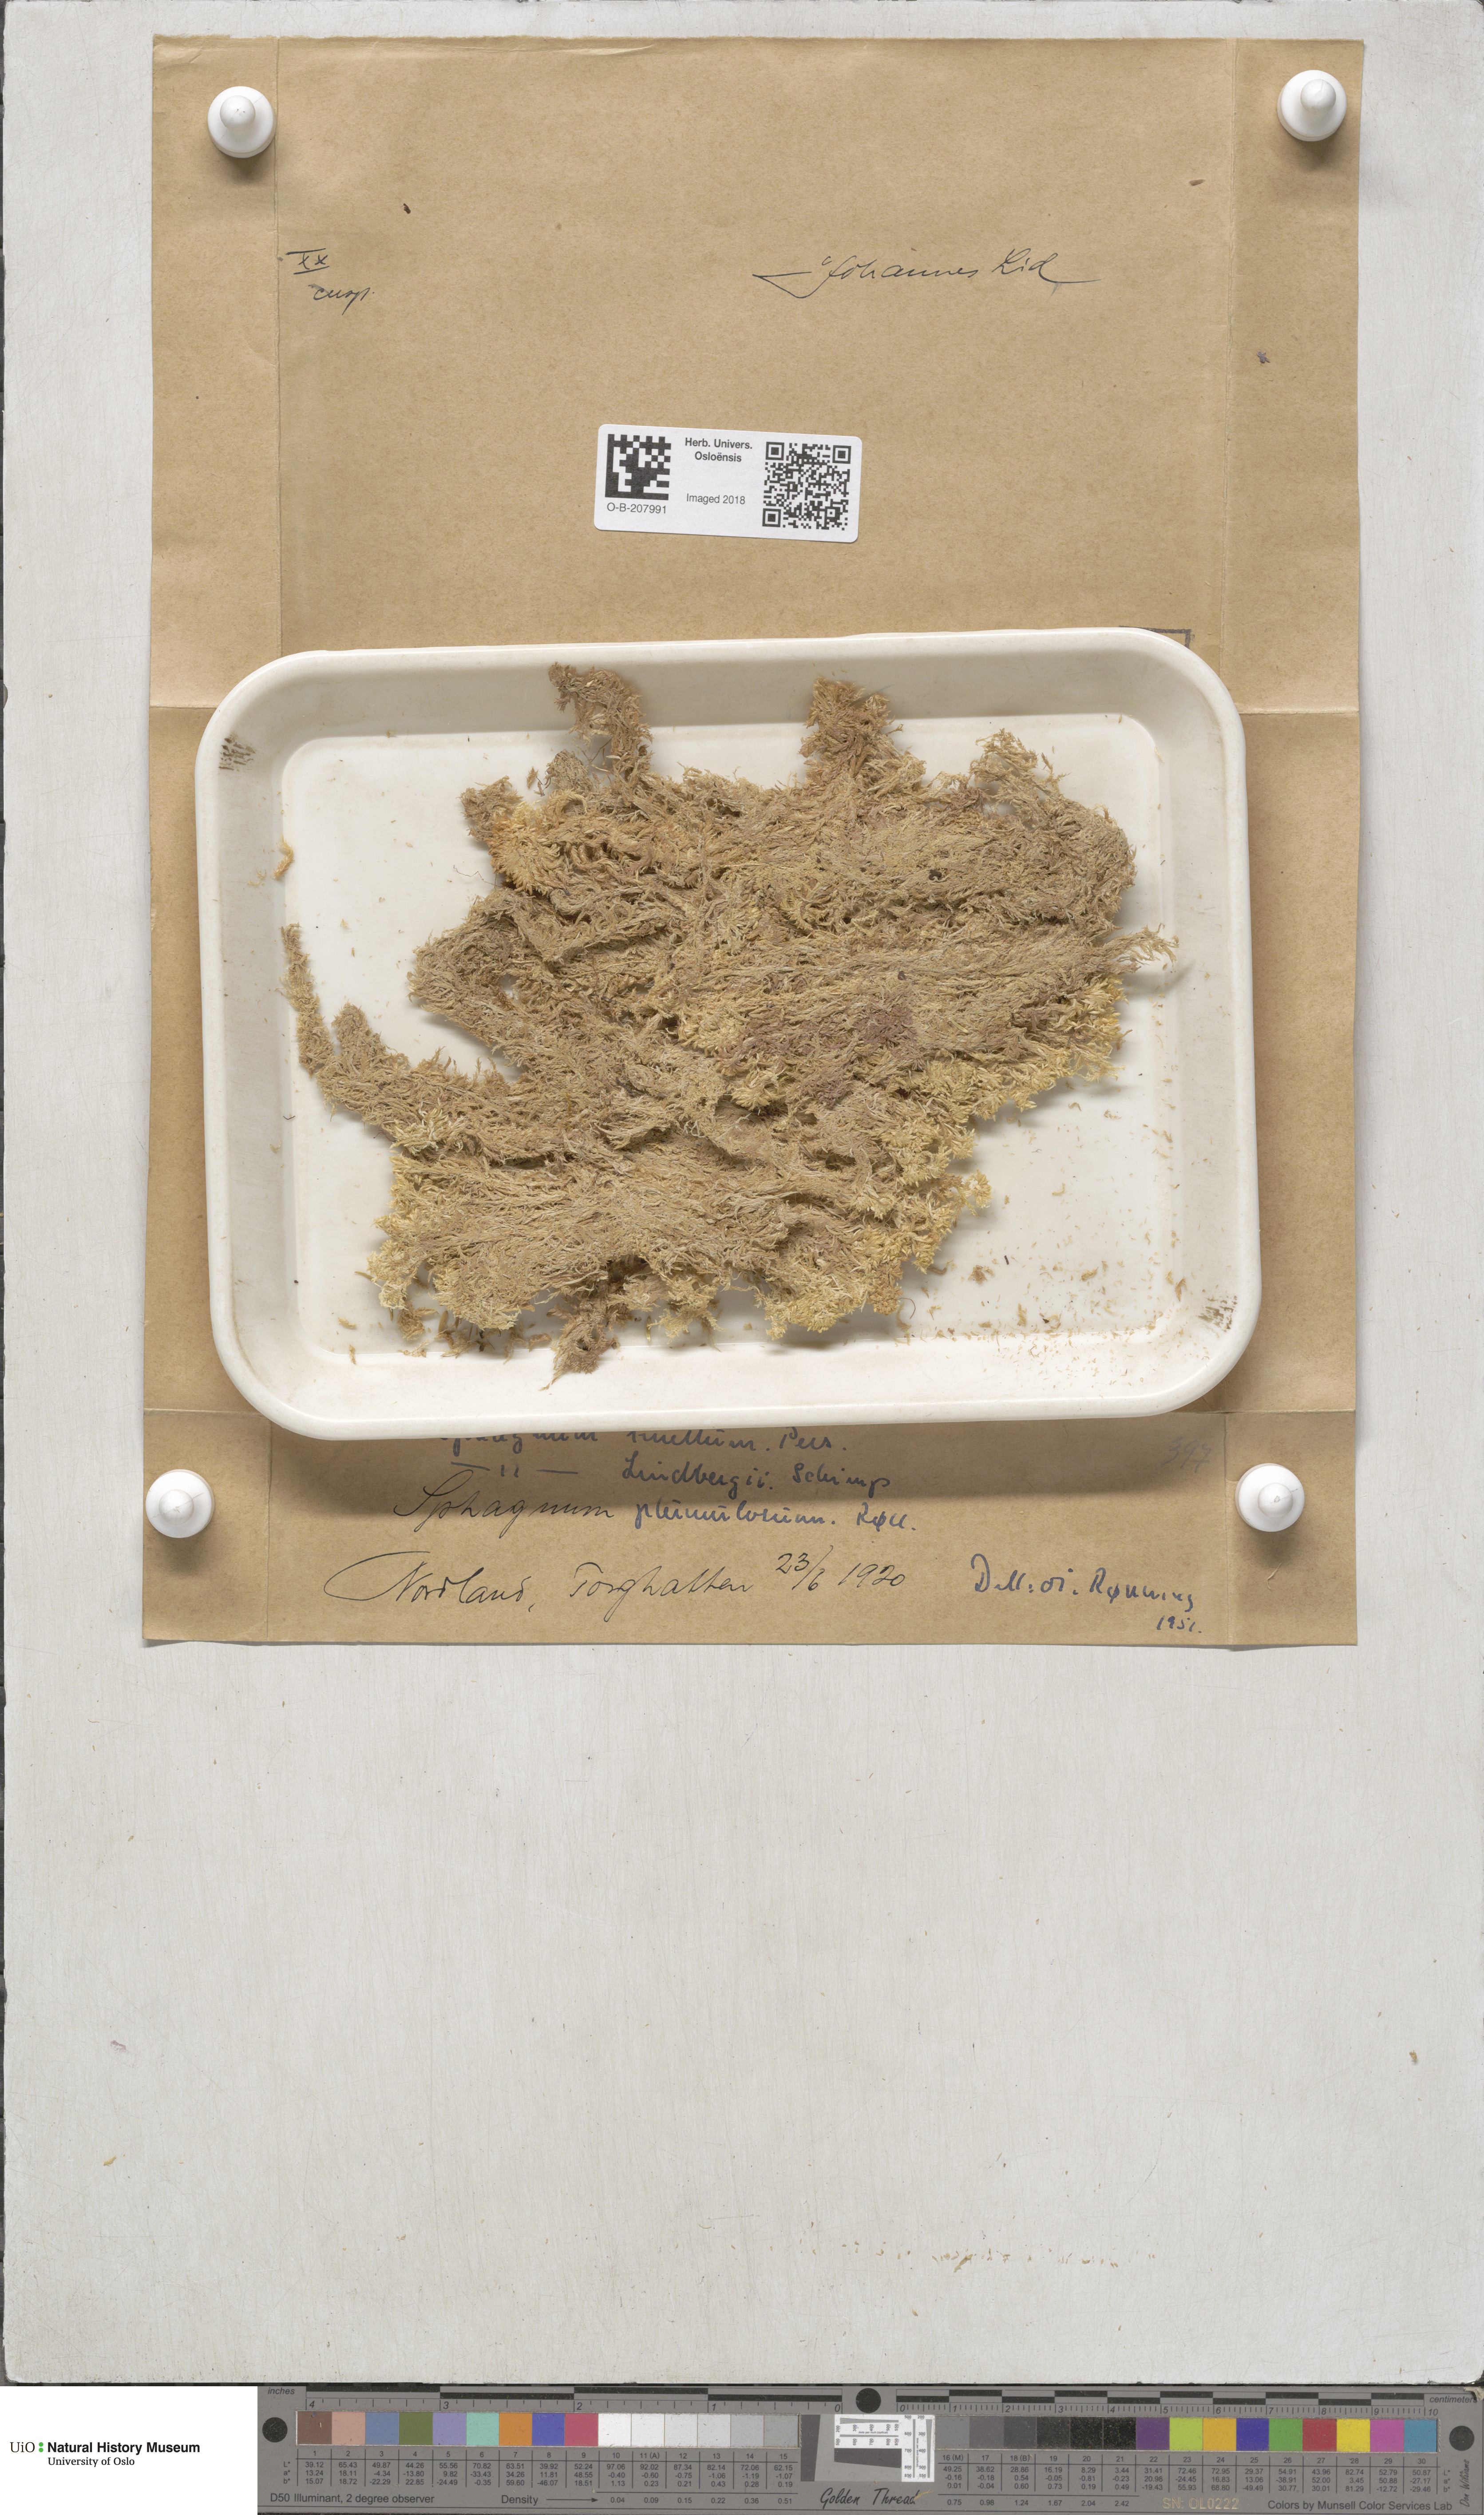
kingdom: Plantae
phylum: Bryophyta
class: Sphagnopsida
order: Sphagnales
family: Sphagnaceae
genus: Sphagnum
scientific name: Sphagnum tenellum
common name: Soft bog-moss
